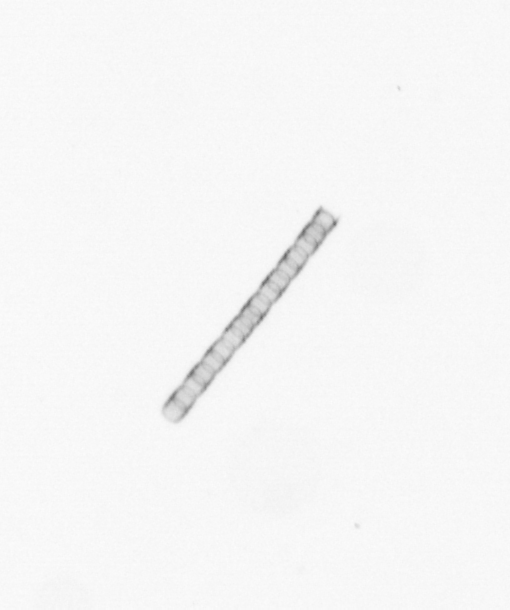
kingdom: Chromista
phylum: Ochrophyta
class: Bacillariophyceae
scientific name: Bacillariophyceae
